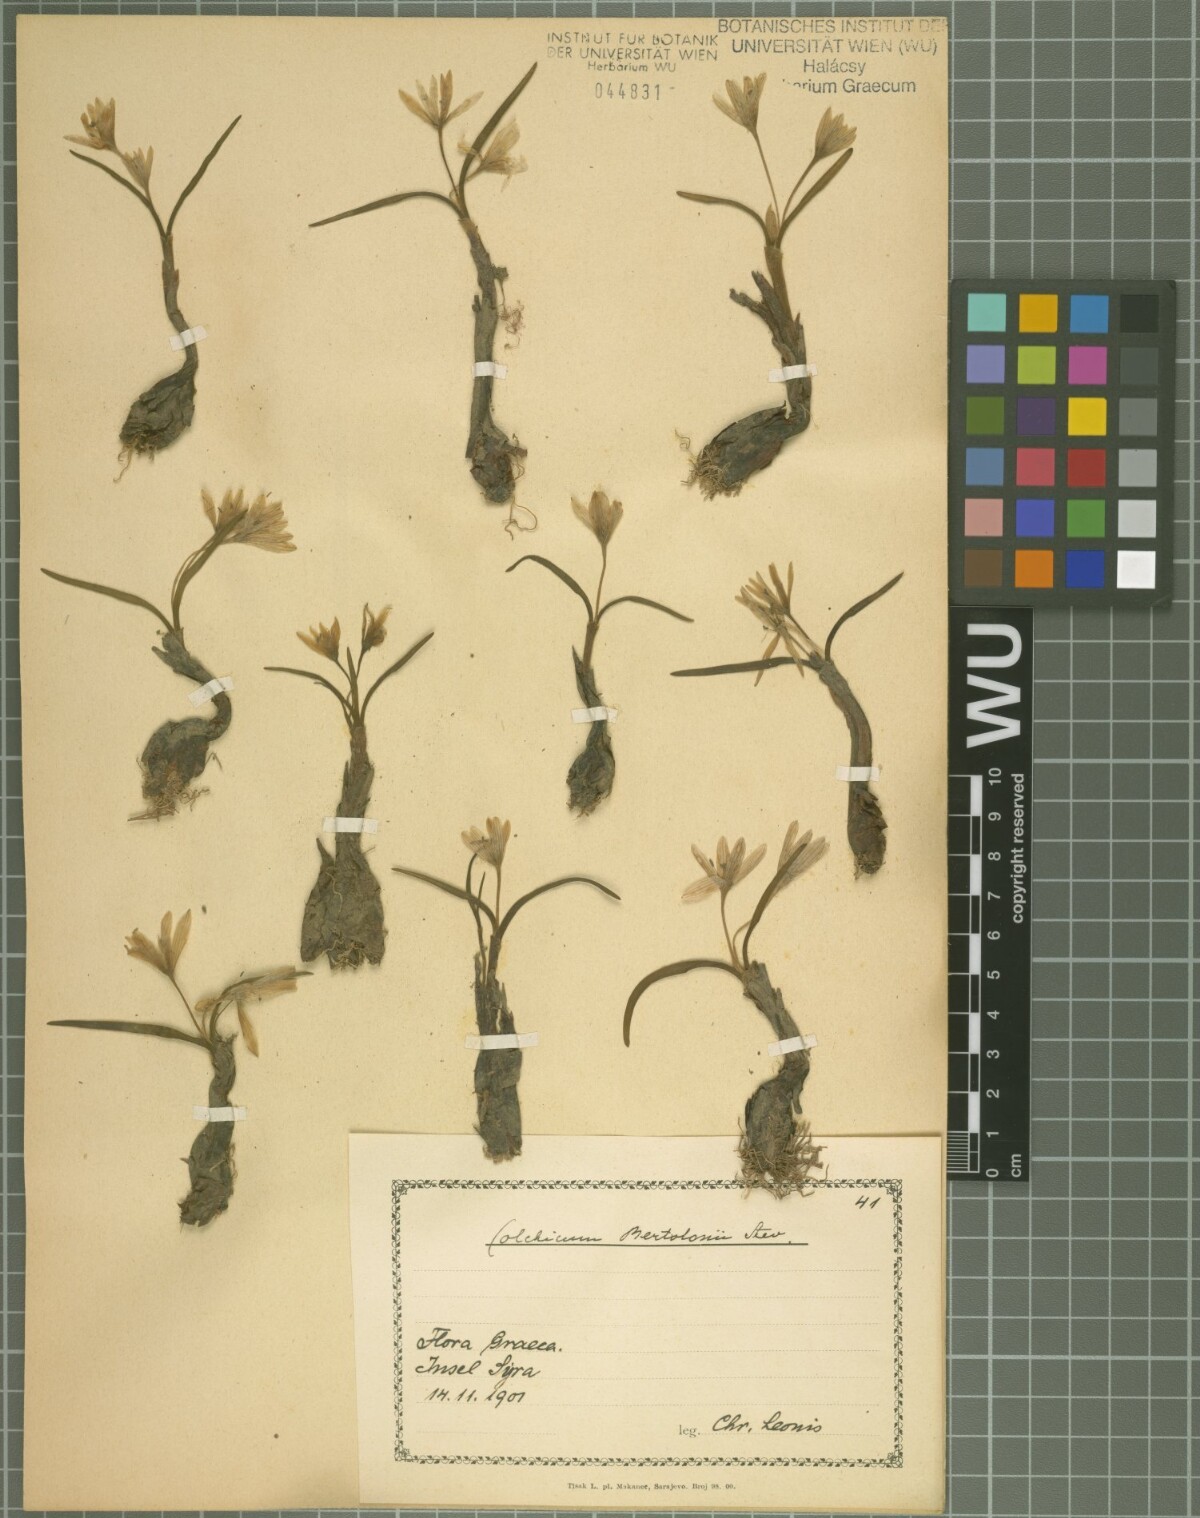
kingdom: Plantae
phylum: Tracheophyta
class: Liliopsida
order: Liliales
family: Colchicaceae
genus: Colchicum
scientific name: Colchicum cupanii
